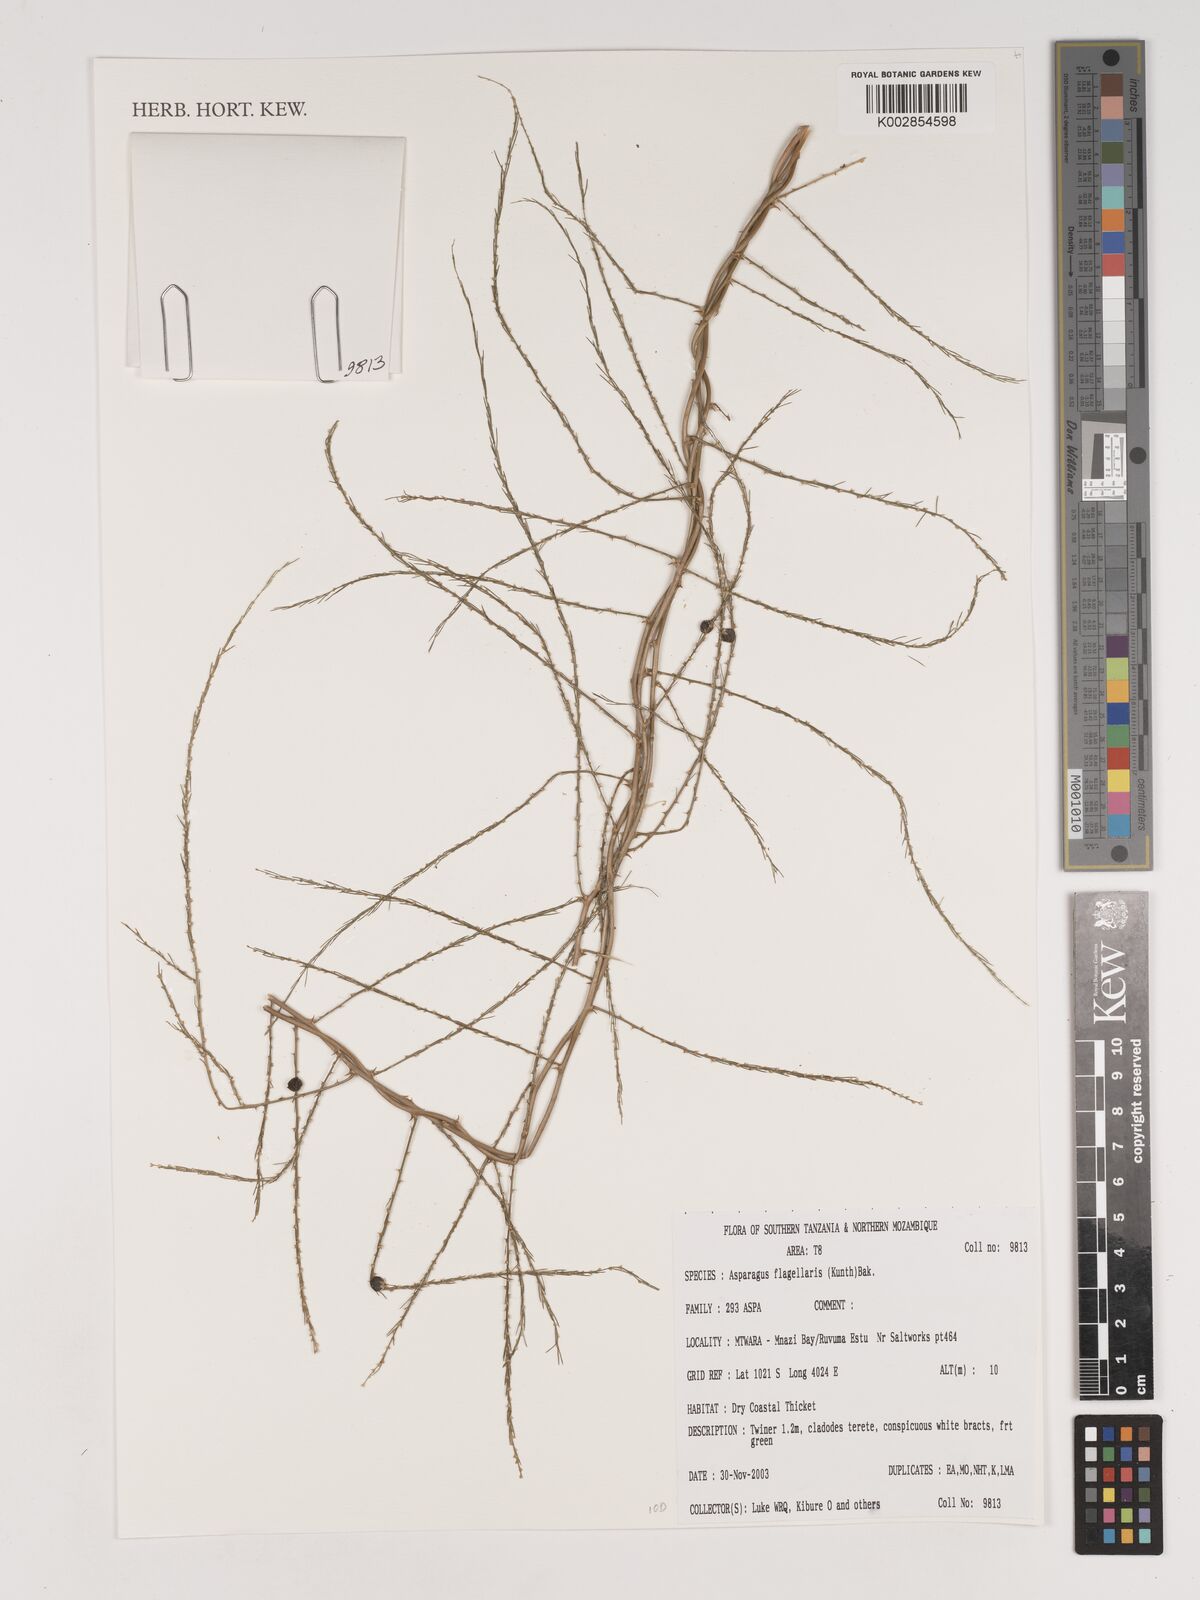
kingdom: Plantae
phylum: Tracheophyta
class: Liliopsida
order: Asparagales
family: Asparagaceae
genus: Asparagus
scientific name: Asparagus flagellaris
